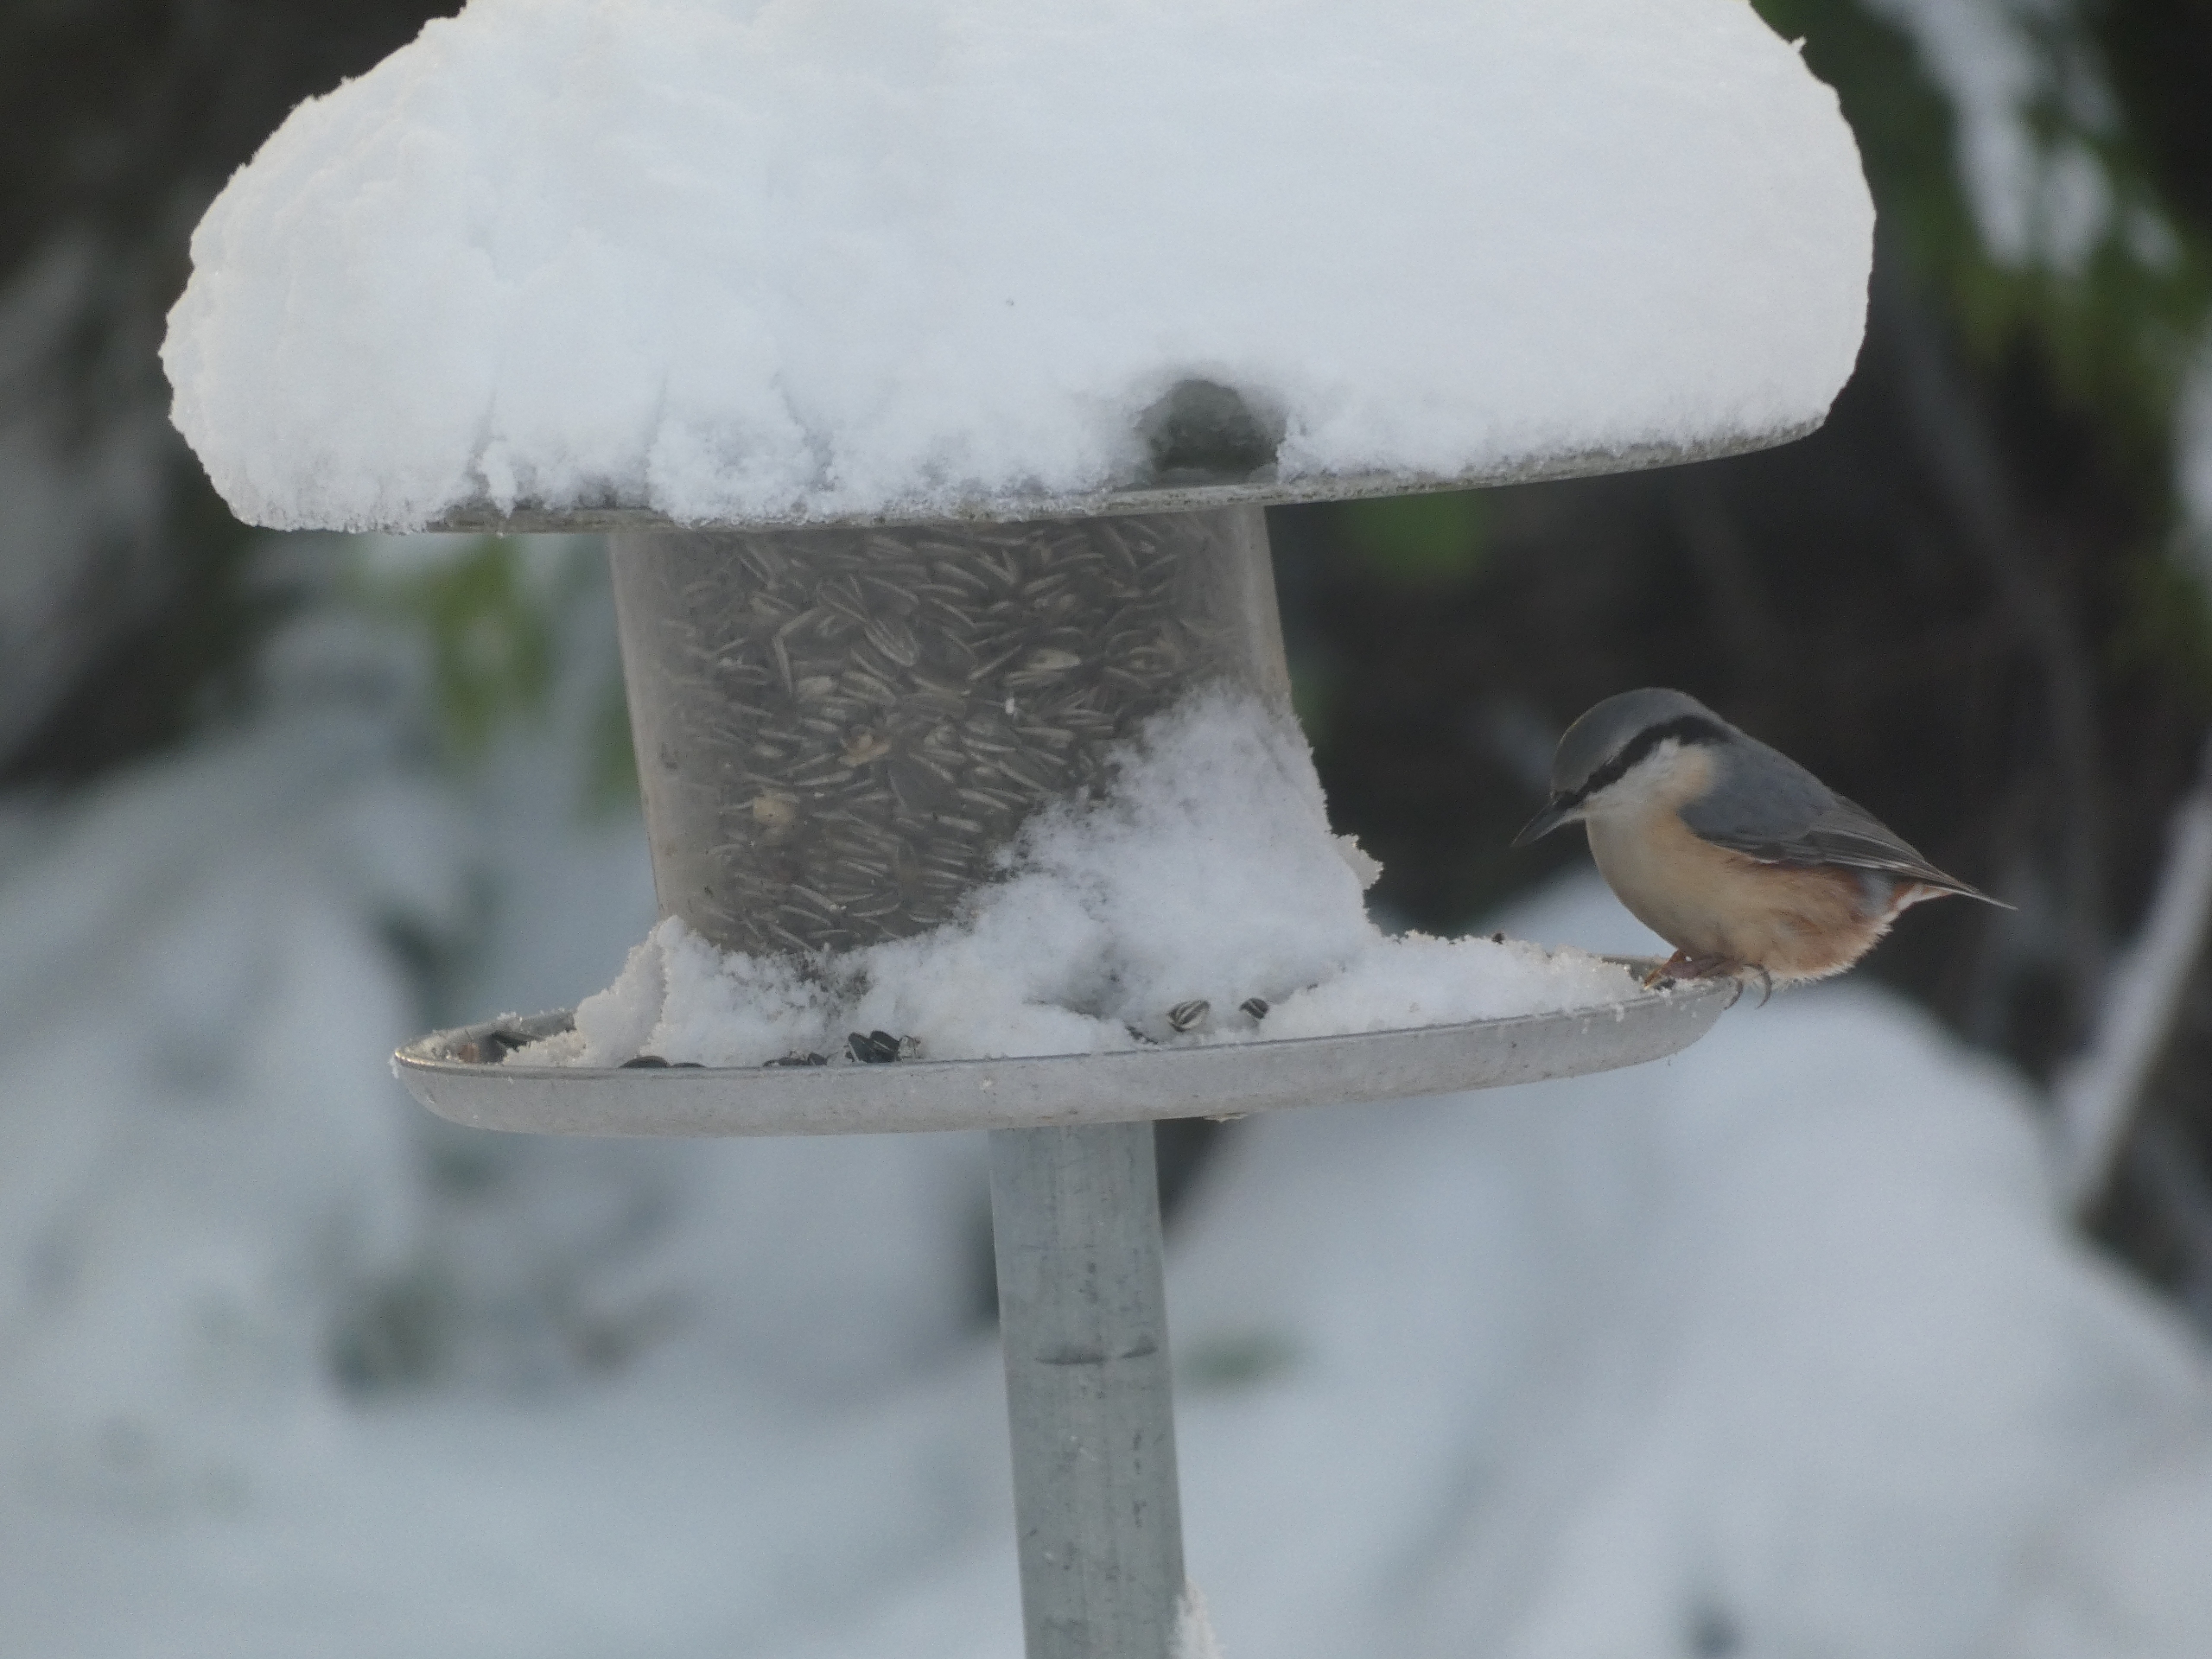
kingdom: Animalia
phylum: Chordata
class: Aves
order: Passeriformes
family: Sittidae
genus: Sitta
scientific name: Sitta europaea
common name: Spætmejse
